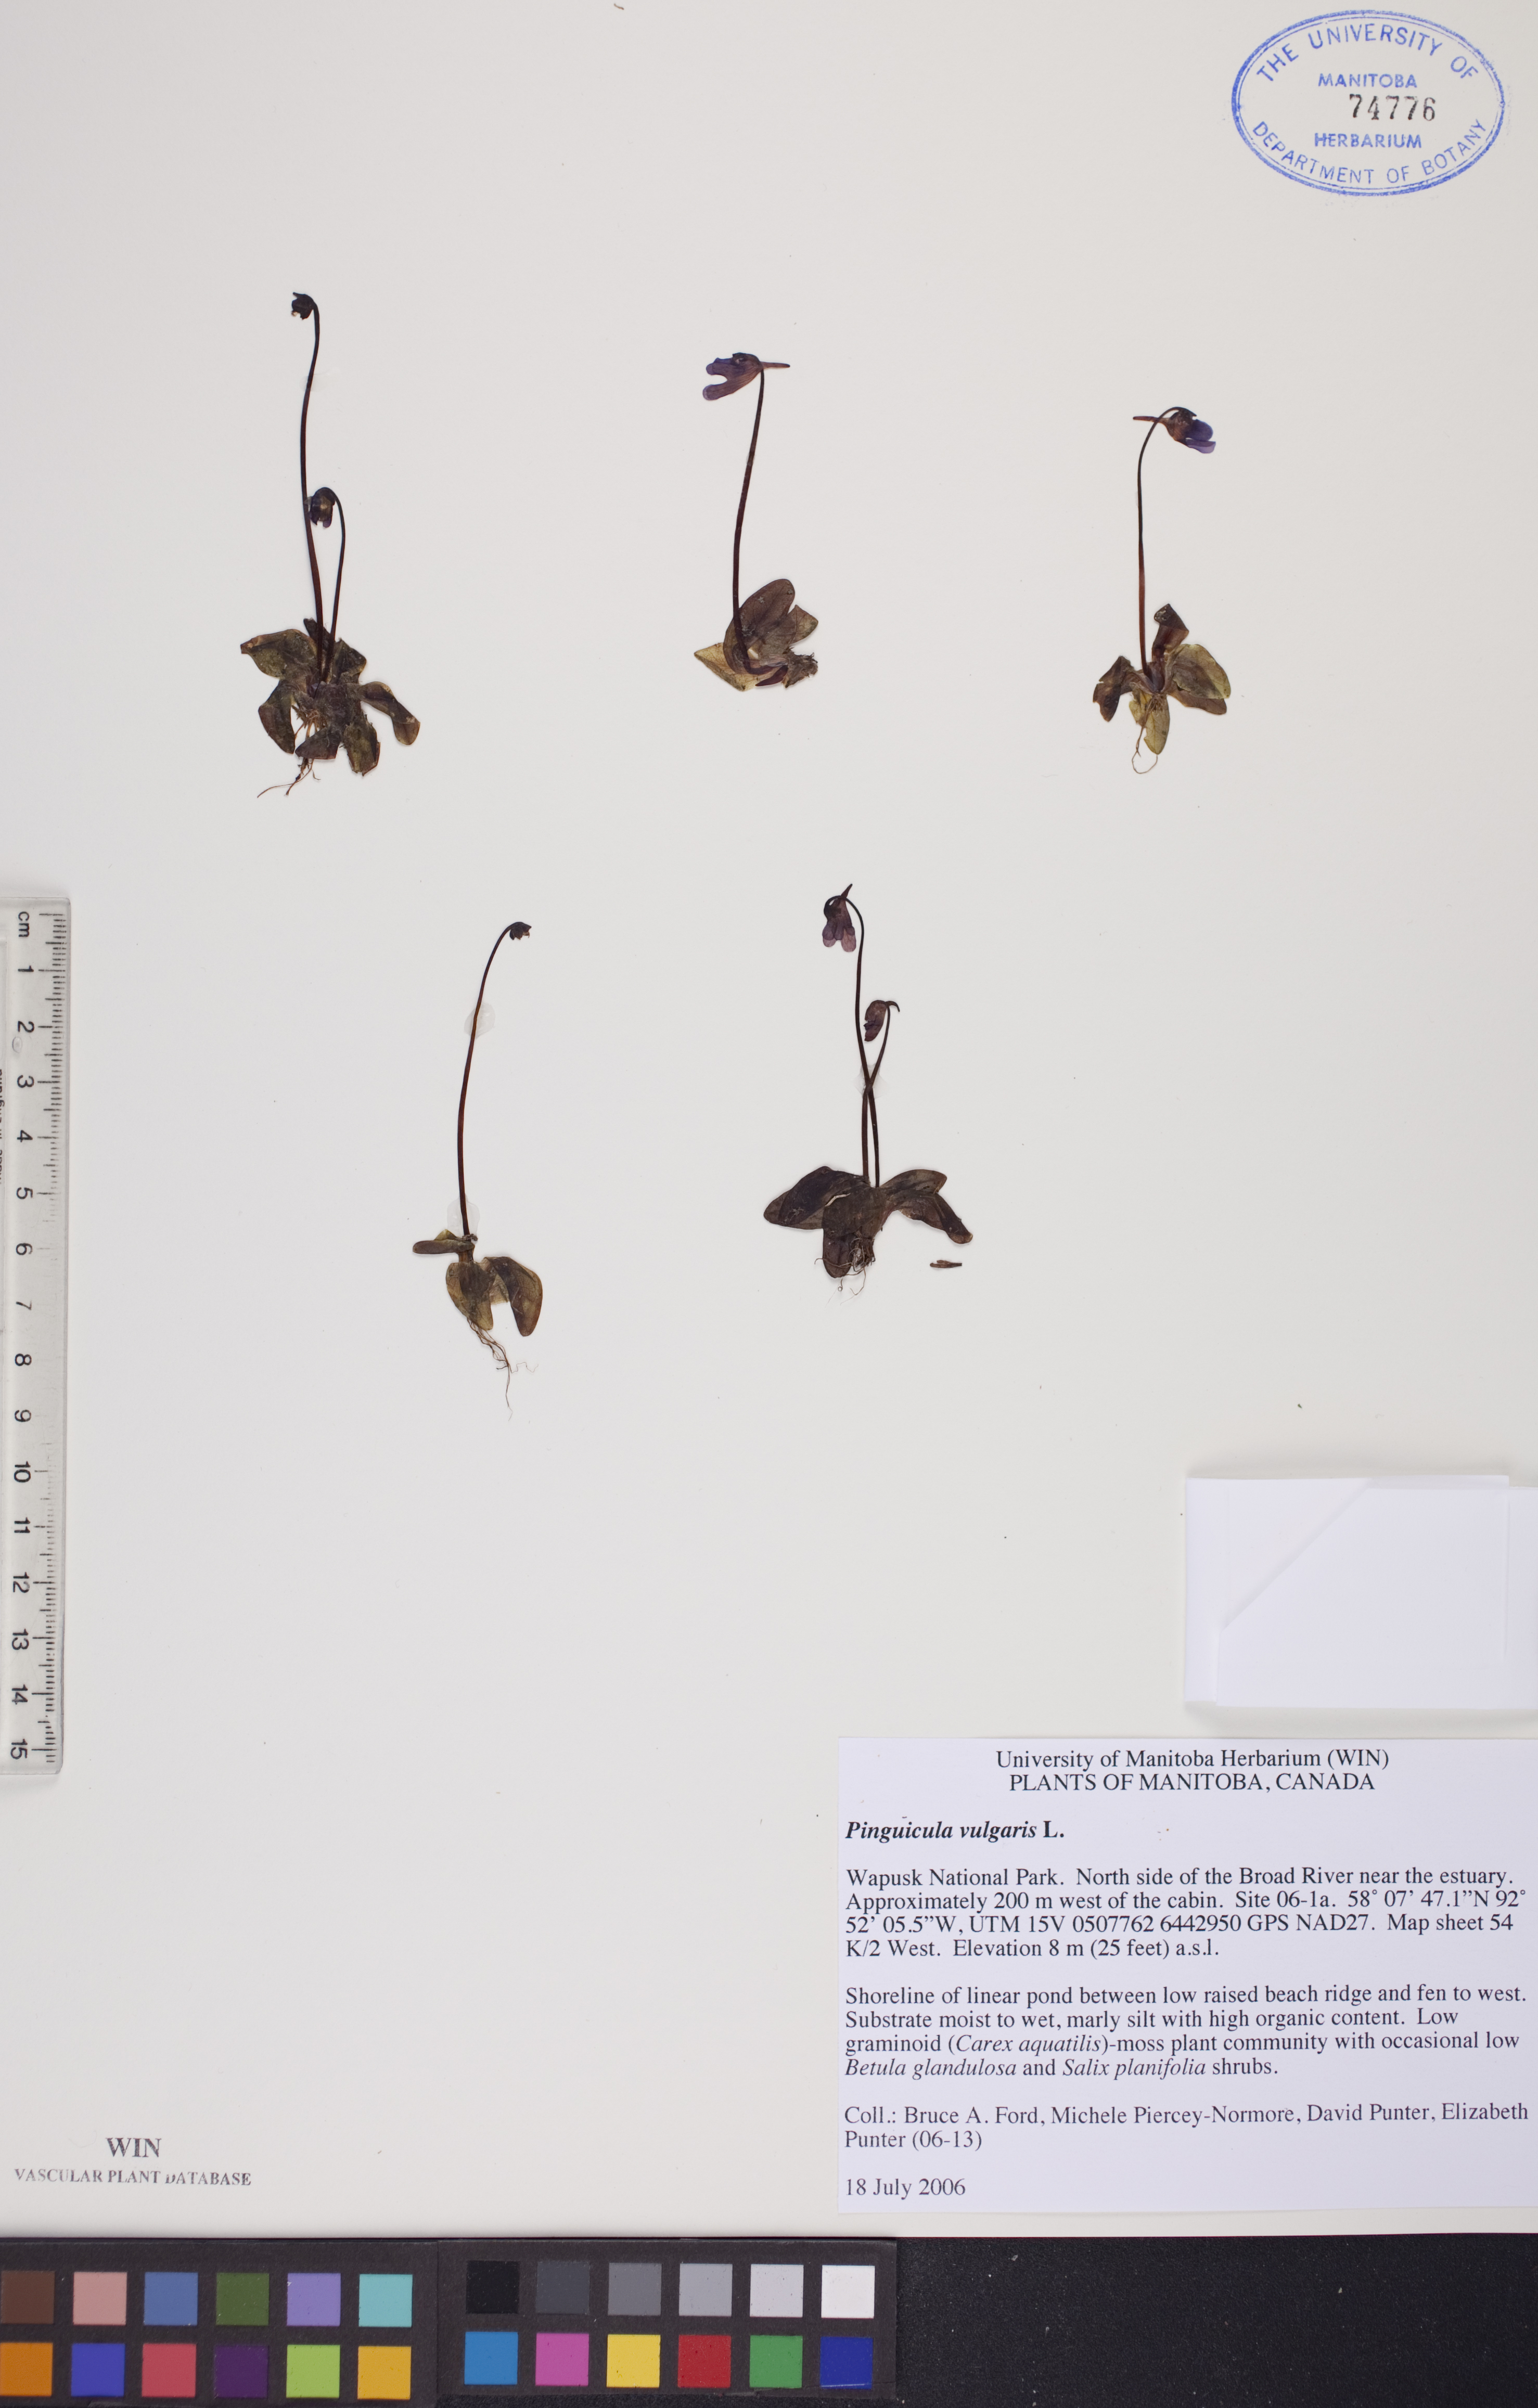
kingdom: Plantae
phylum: Tracheophyta
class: Magnoliopsida
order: Lamiales
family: Lentibulariaceae
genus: Pinguicula
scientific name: Pinguicula vulgaris
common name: Common butterwort
